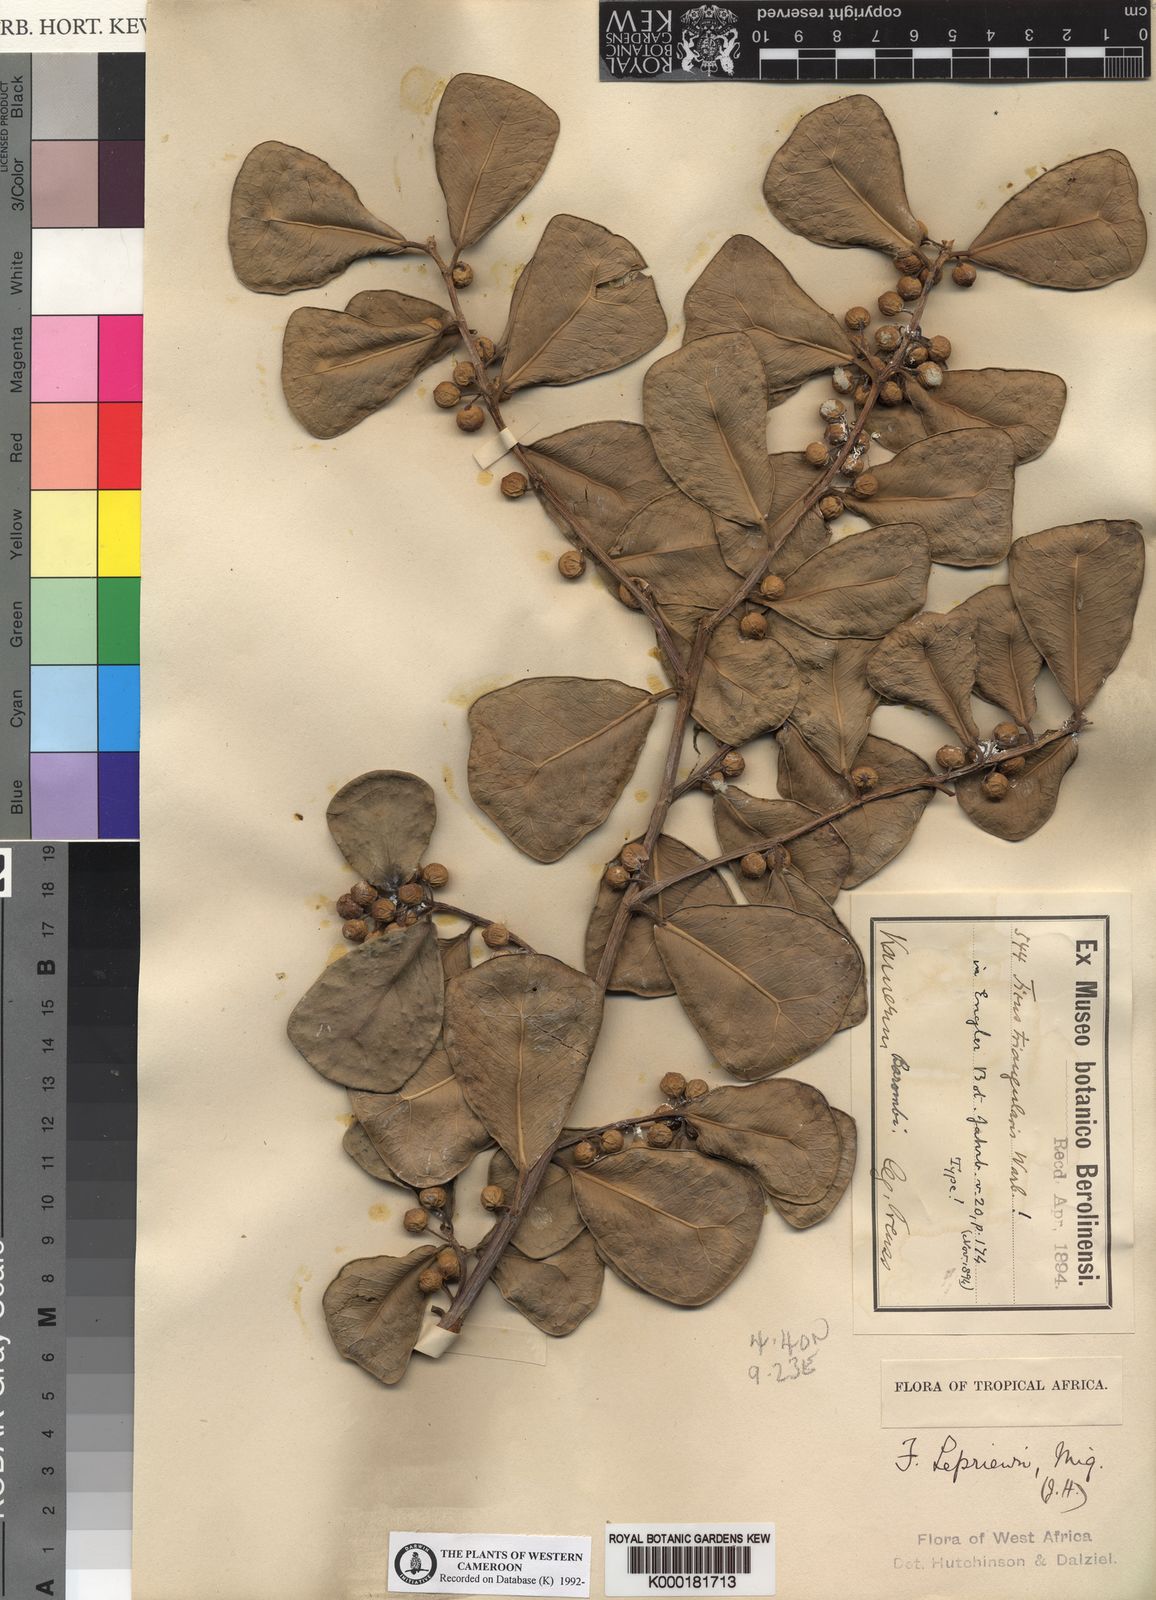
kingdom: Plantae
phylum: Tracheophyta
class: Magnoliopsida
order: Rosales
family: Moraceae
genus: Ficus
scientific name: Ficus natalensis
